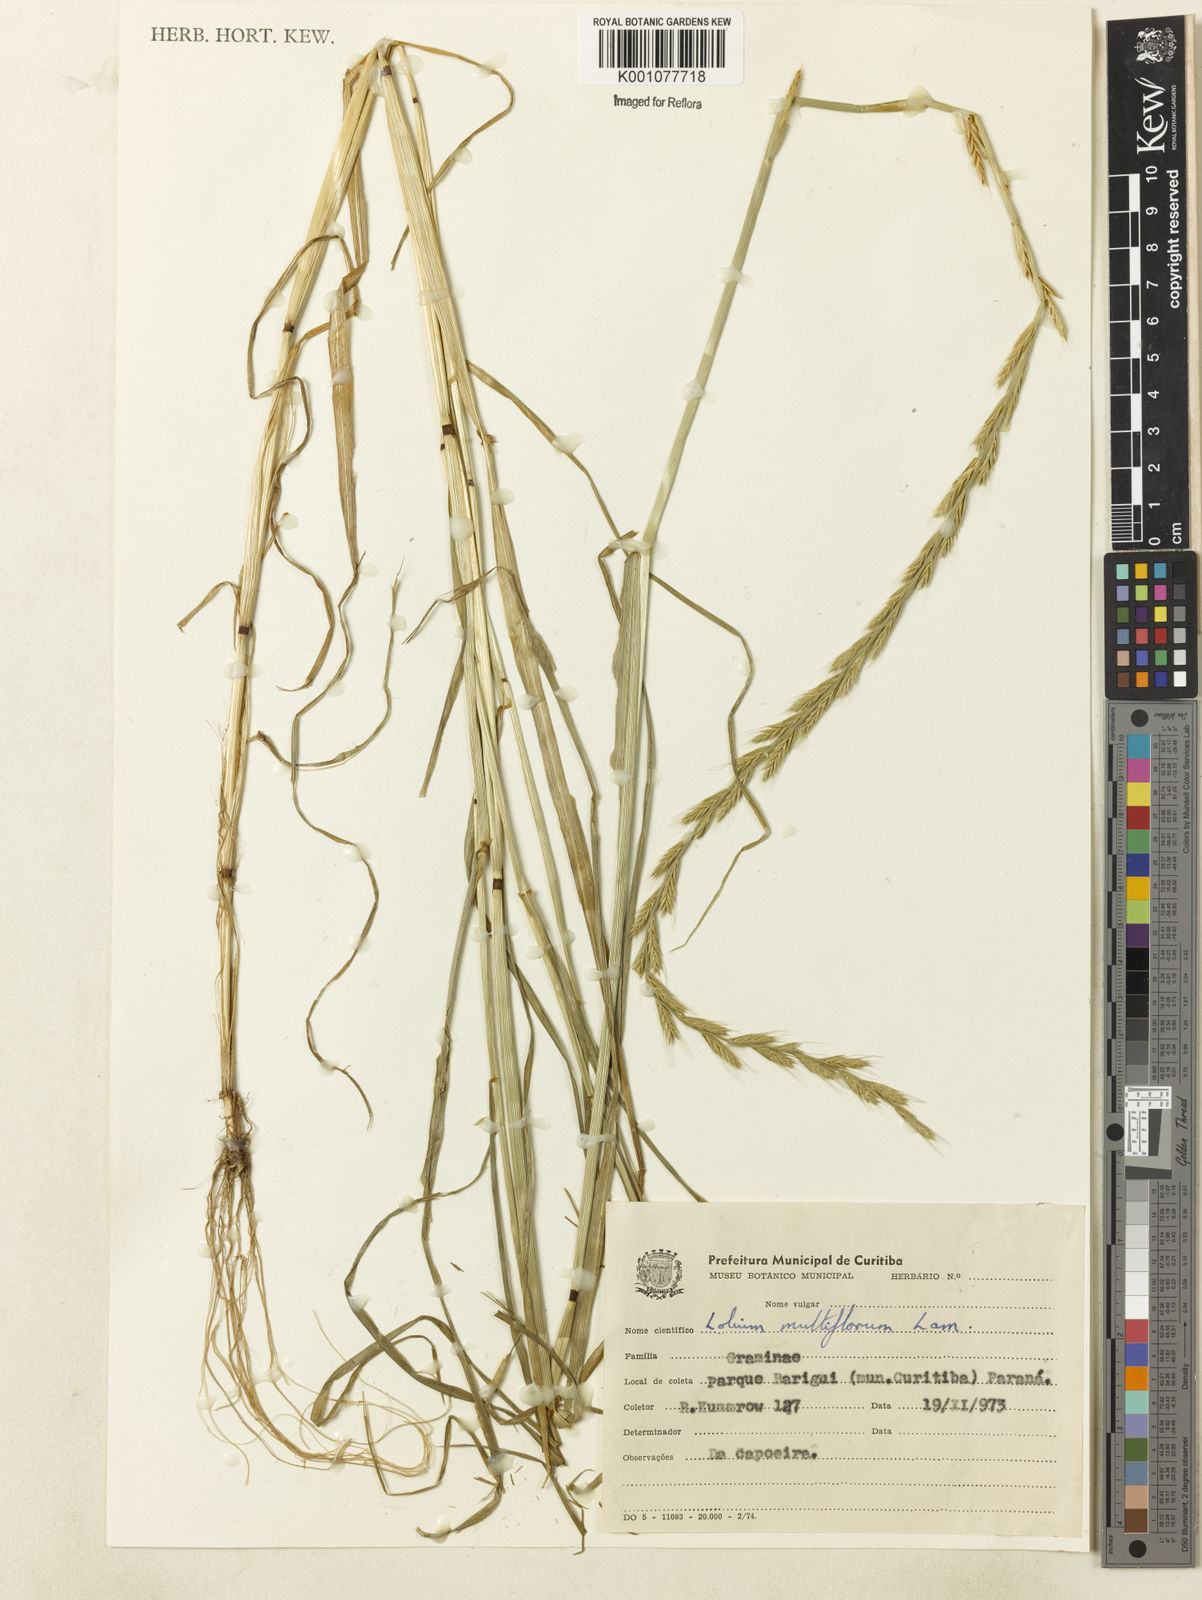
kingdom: Plantae
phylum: Tracheophyta
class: Liliopsida
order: Poales
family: Poaceae
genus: Lolium
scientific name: Lolium multiflorum
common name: Annual ryegrass
